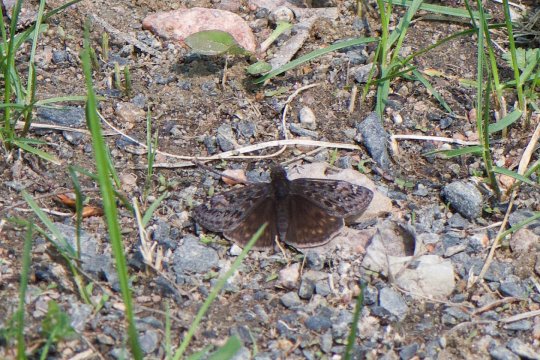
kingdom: Animalia
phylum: Arthropoda
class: Insecta
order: Lepidoptera
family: Hesperiidae
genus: Gesta
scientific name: Gesta
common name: Juvenal's Duskywing
